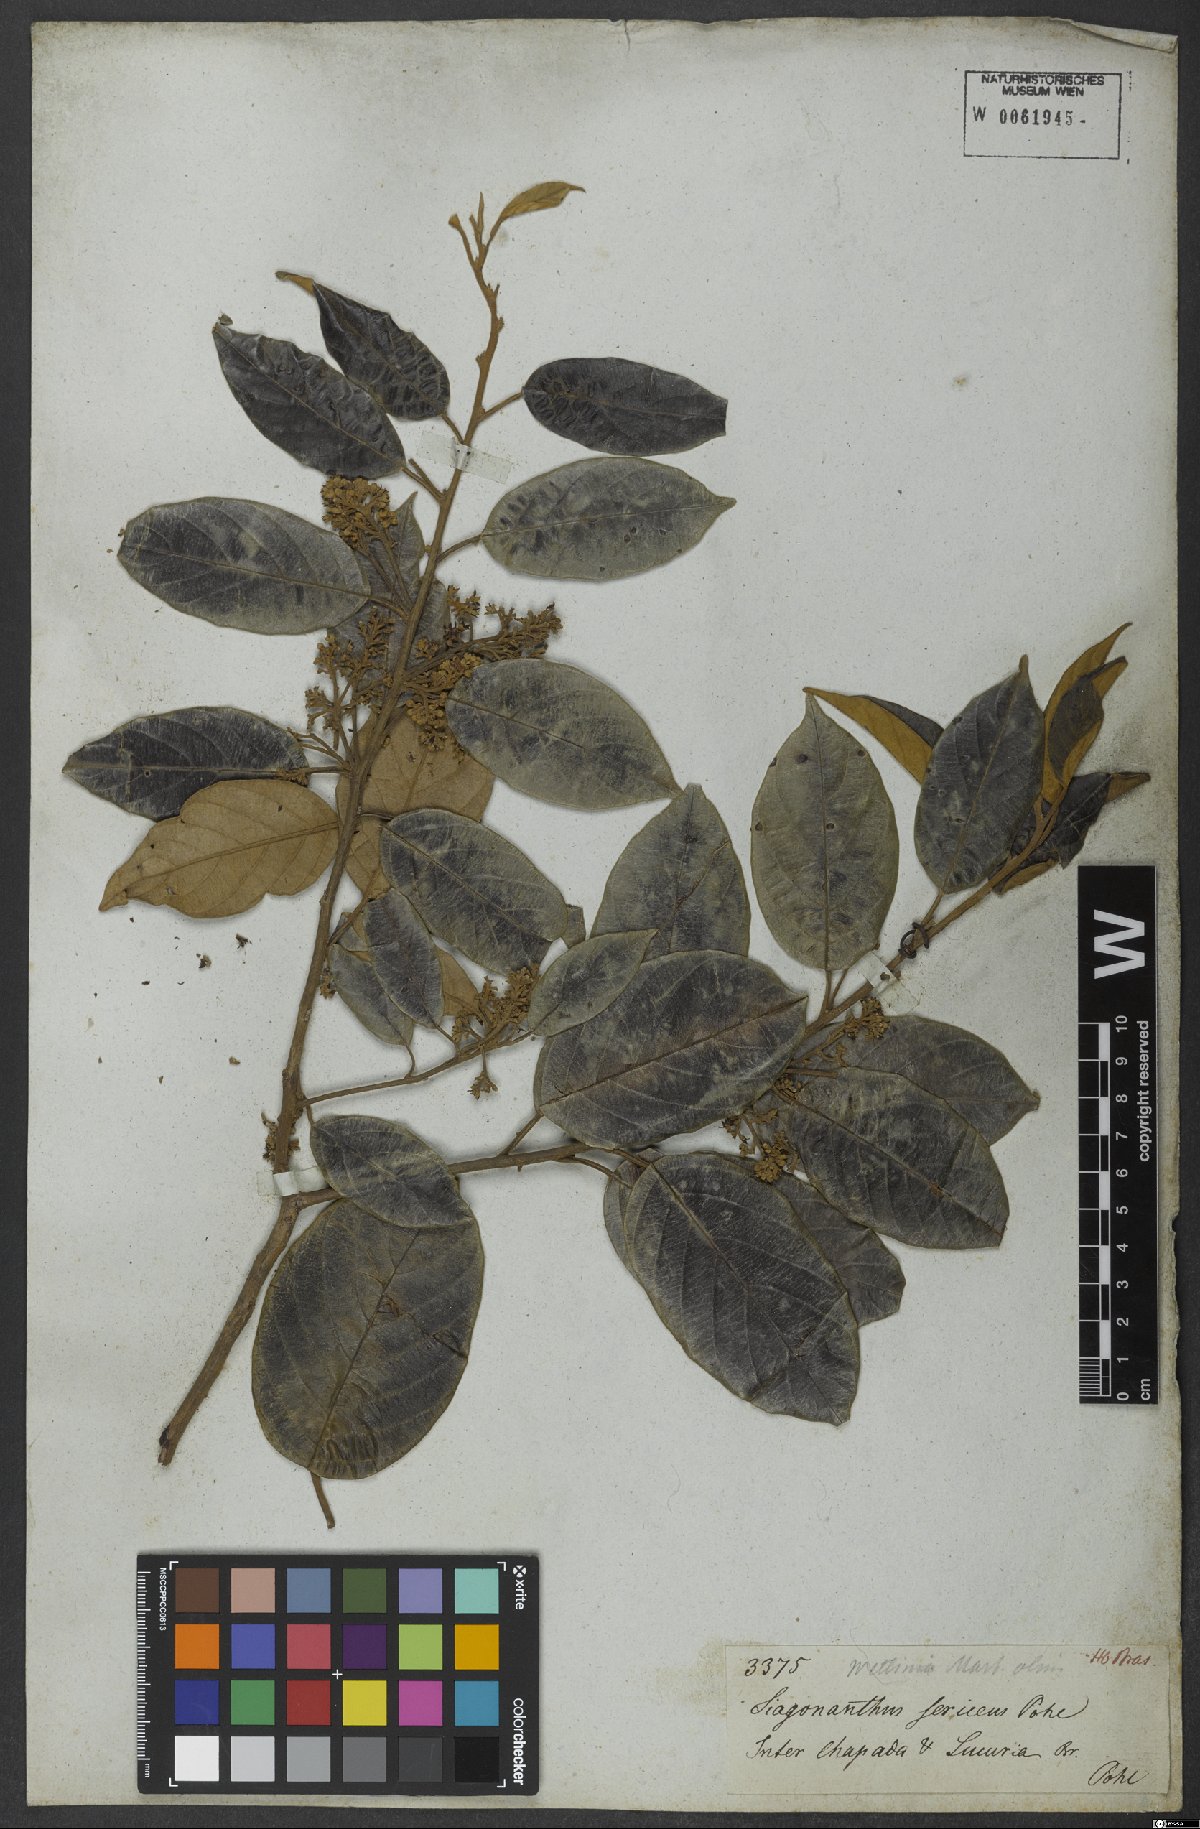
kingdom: Plantae
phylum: Tracheophyta
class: Magnoliopsida
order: Metteniusales
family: Metteniusaceae
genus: Emmotum
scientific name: Emmotum nitens
